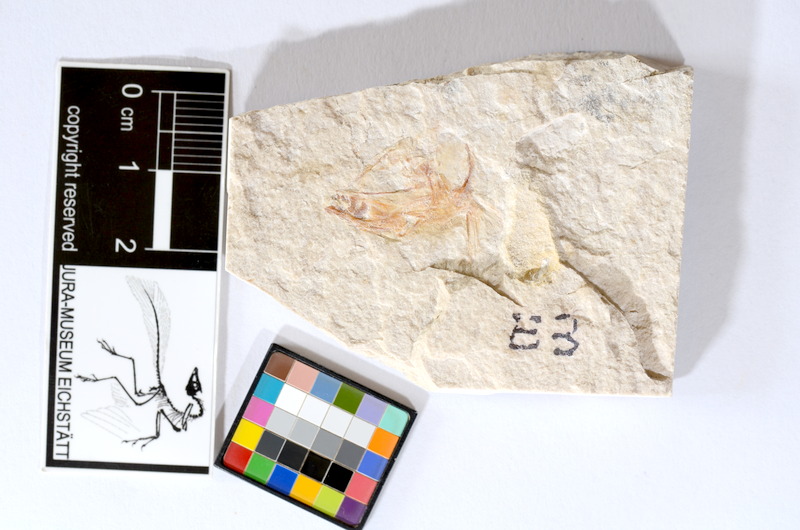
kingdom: Animalia
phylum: Chordata
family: Ascalaboidae
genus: Tharsis
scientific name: Tharsis dubius
